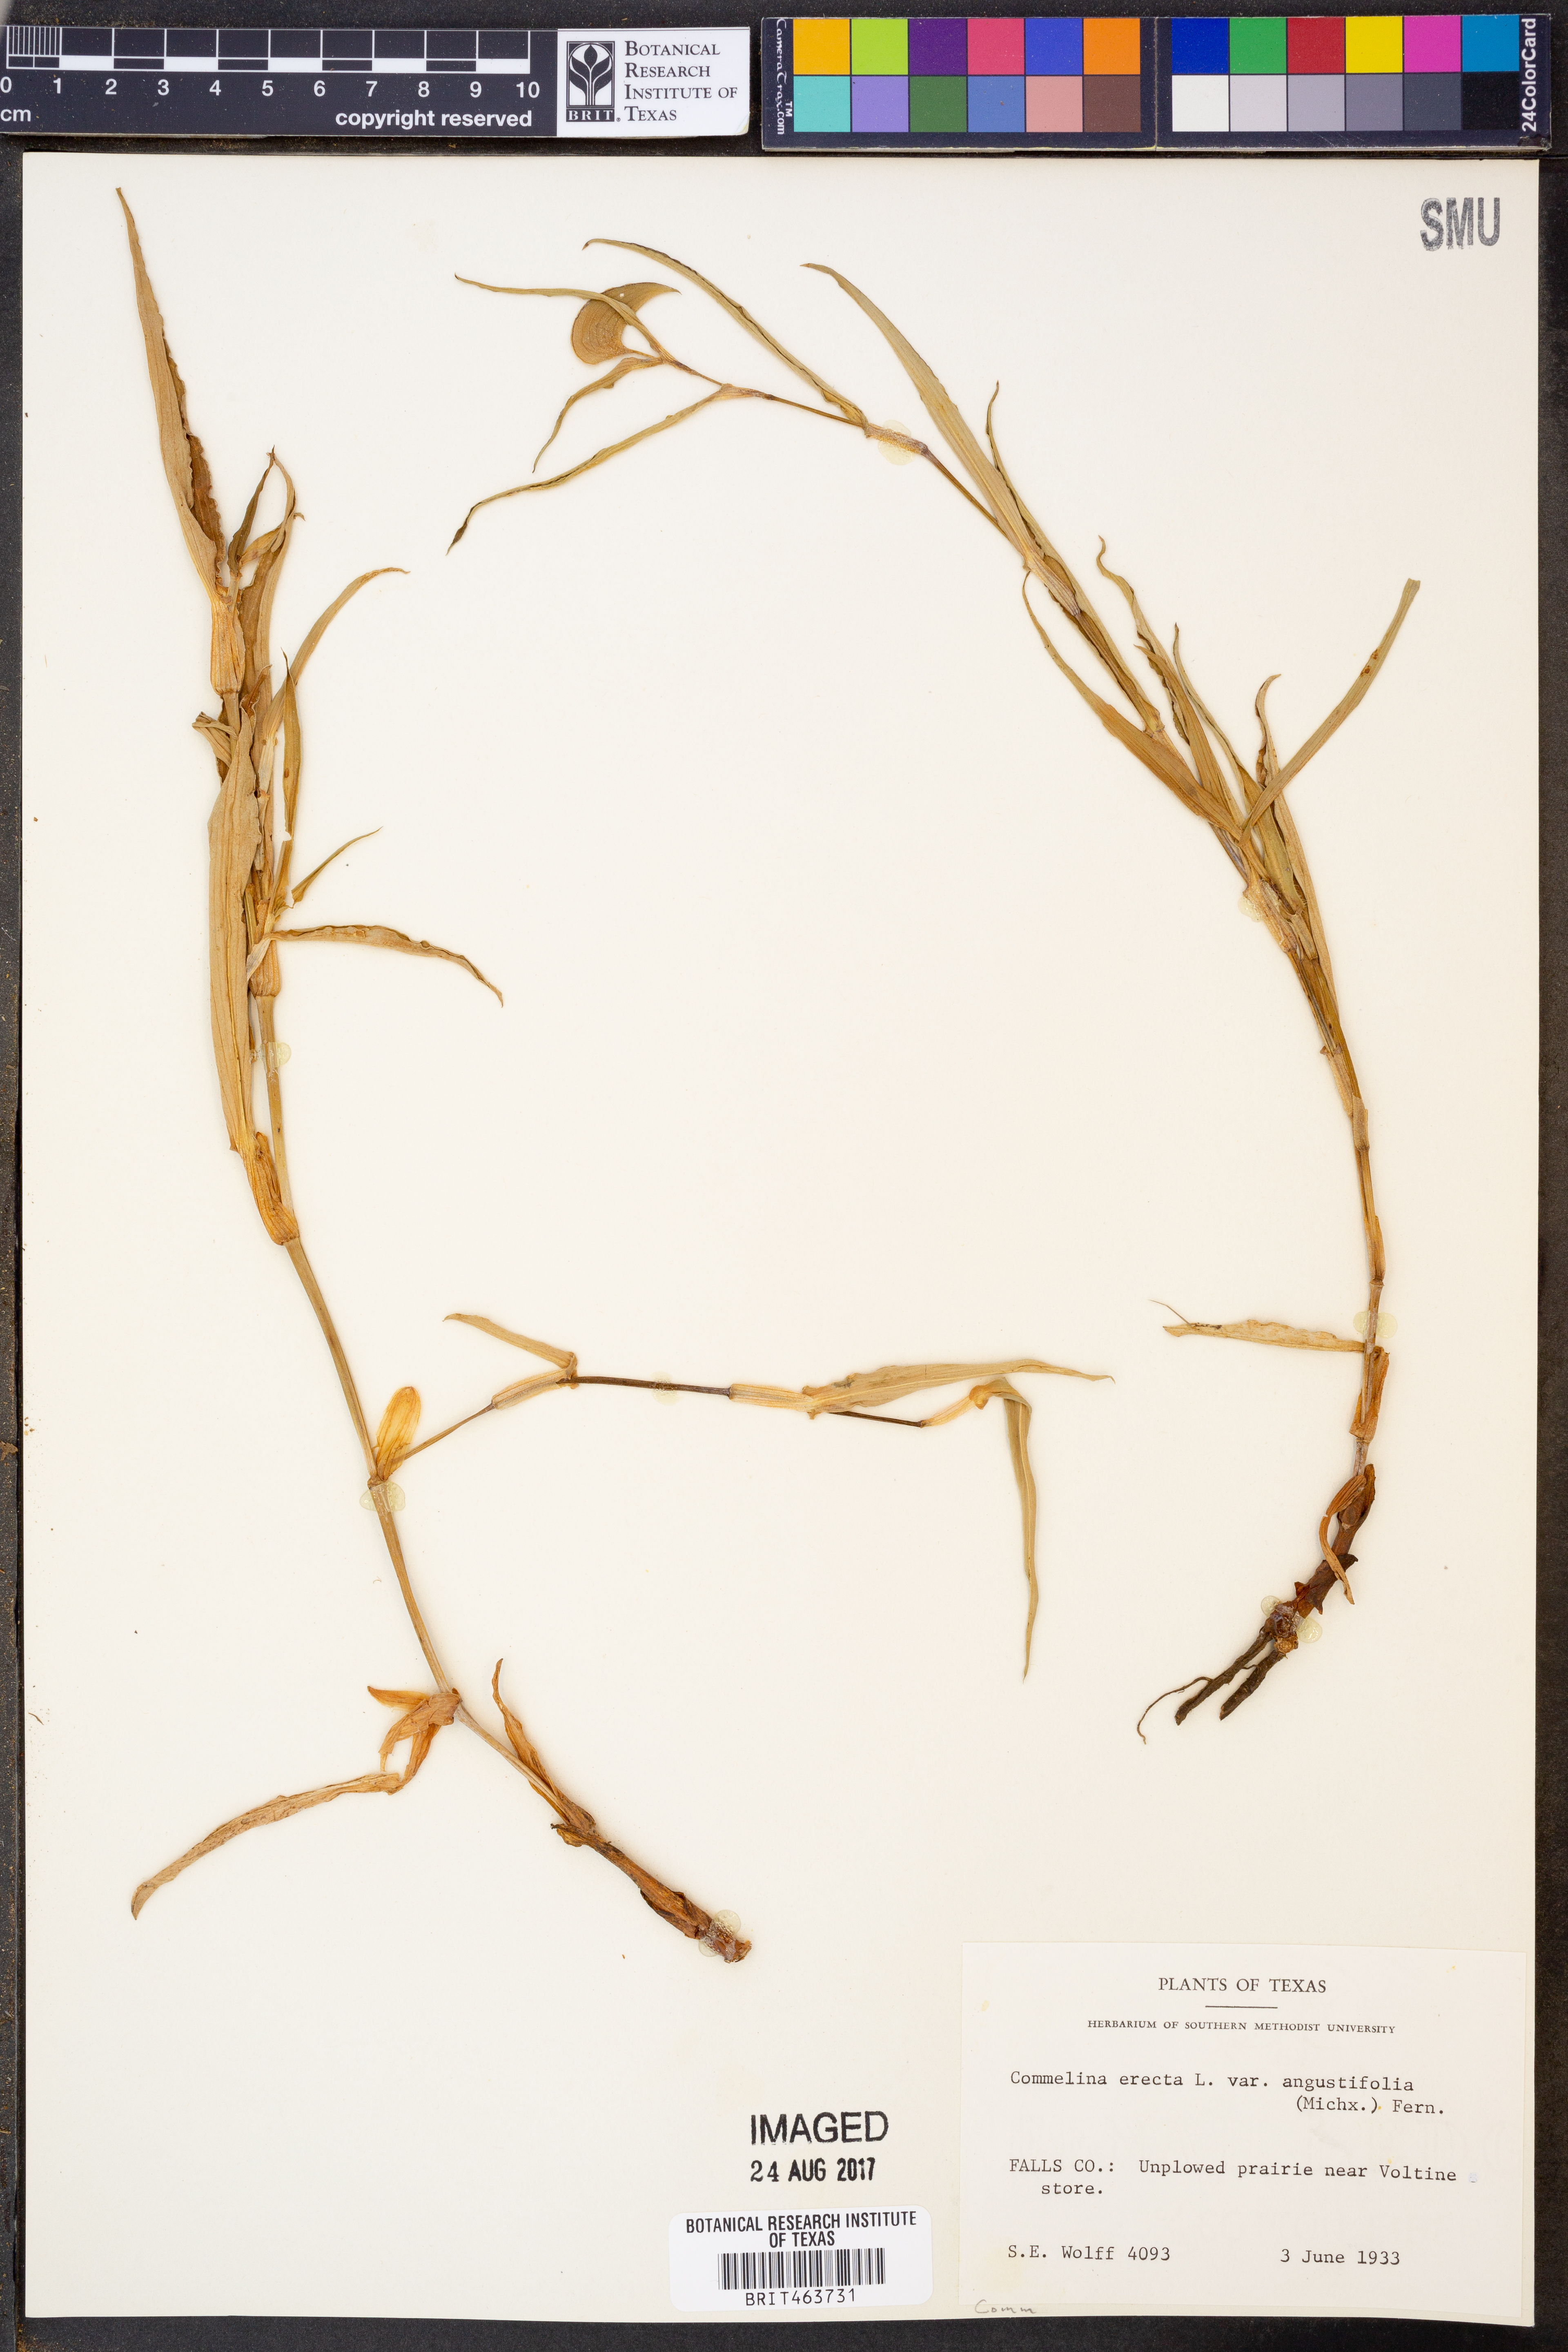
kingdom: Plantae
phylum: Tracheophyta
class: Liliopsida
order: Commelinales
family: Commelinaceae
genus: Commelina
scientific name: Commelina erecta
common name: Blousel blommetjie
